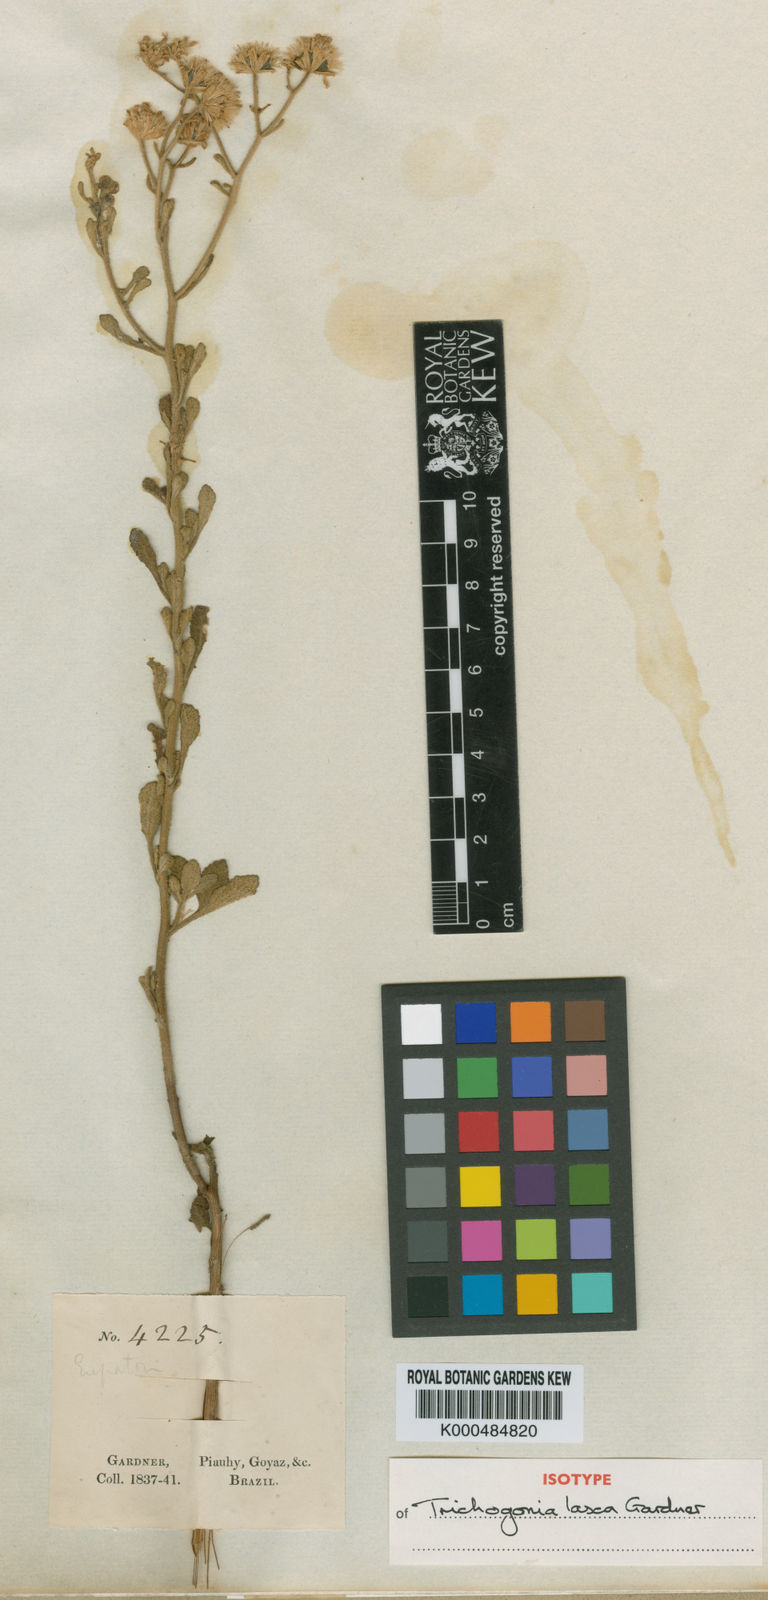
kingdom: Plantae
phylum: Tracheophyta
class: Magnoliopsida
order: Asterales
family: Asteraceae
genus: Trichogonia
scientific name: Trichogonia laxa
